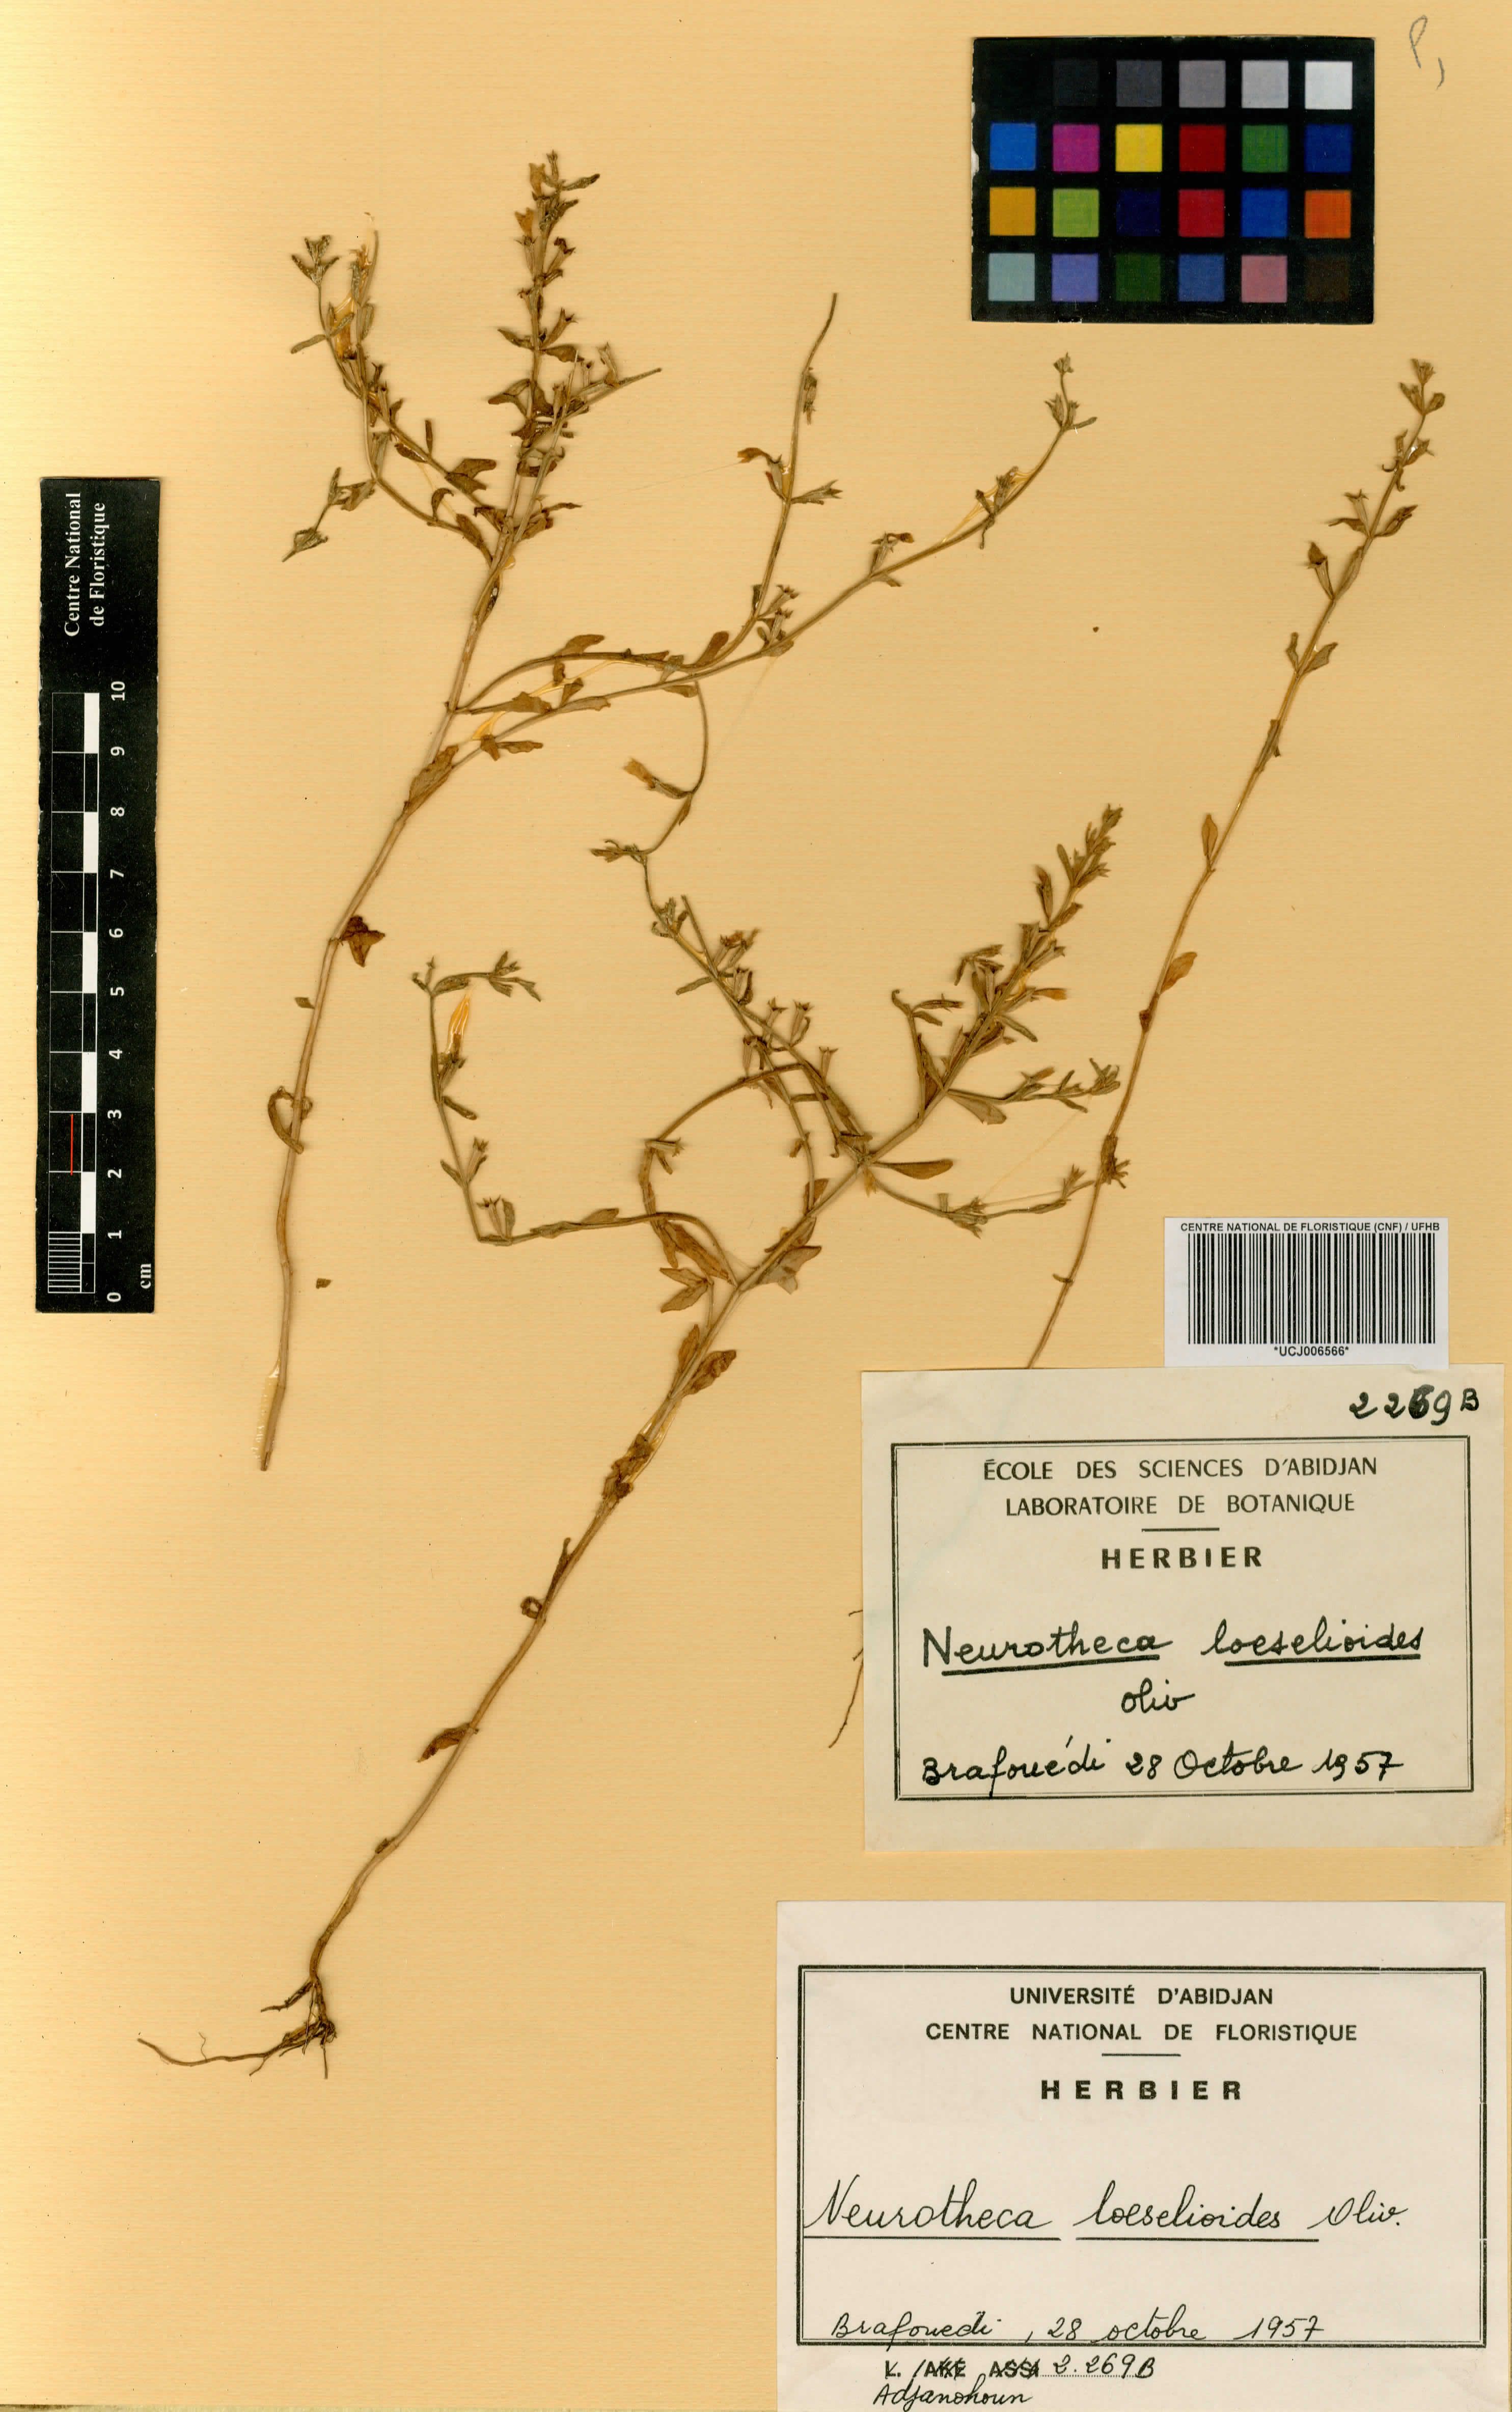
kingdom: Plantae
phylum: Tracheophyta
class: Magnoliopsida
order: Gentianales
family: Gentianaceae
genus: Neurotheca
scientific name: Neurotheca loeselioides
